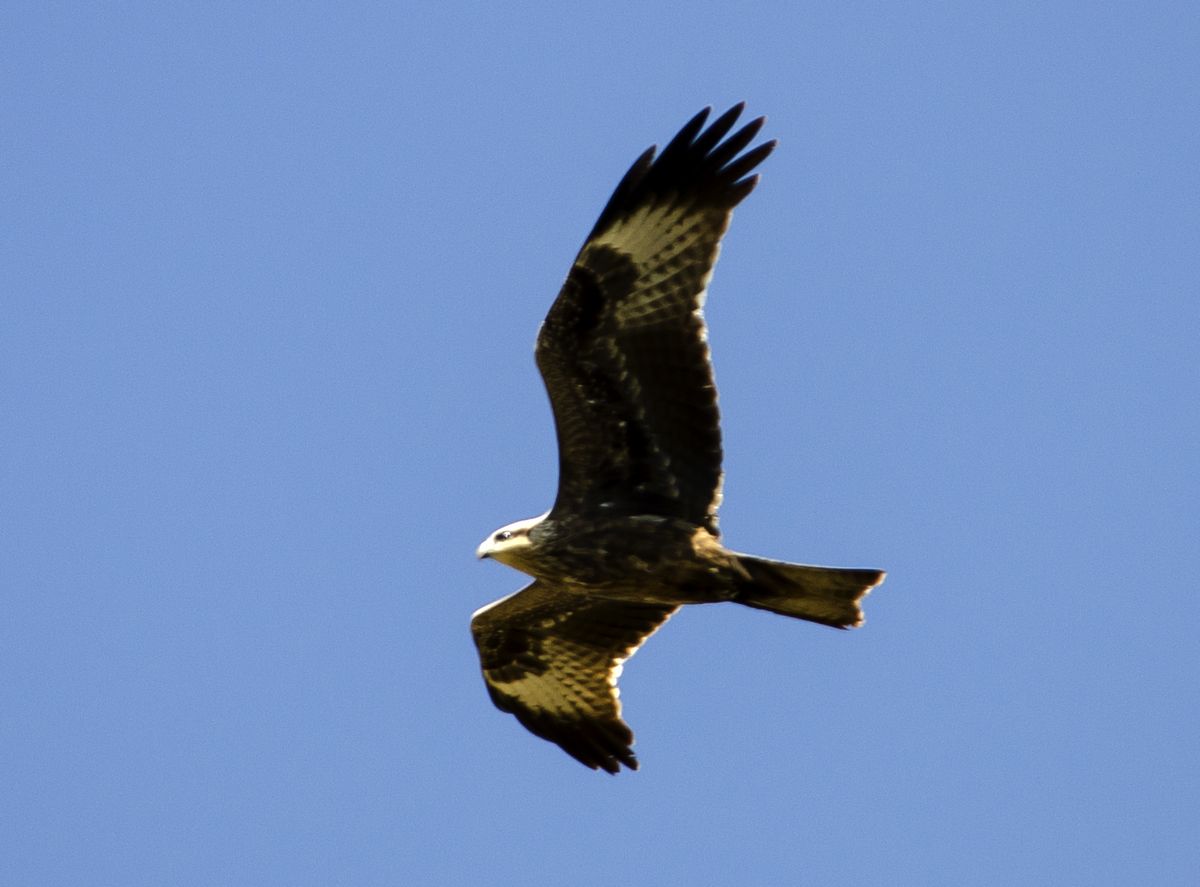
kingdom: Animalia
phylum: Chordata
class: Aves
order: Accipitriformes
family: Accipitridae
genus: Milvus
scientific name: Milvus migrans
